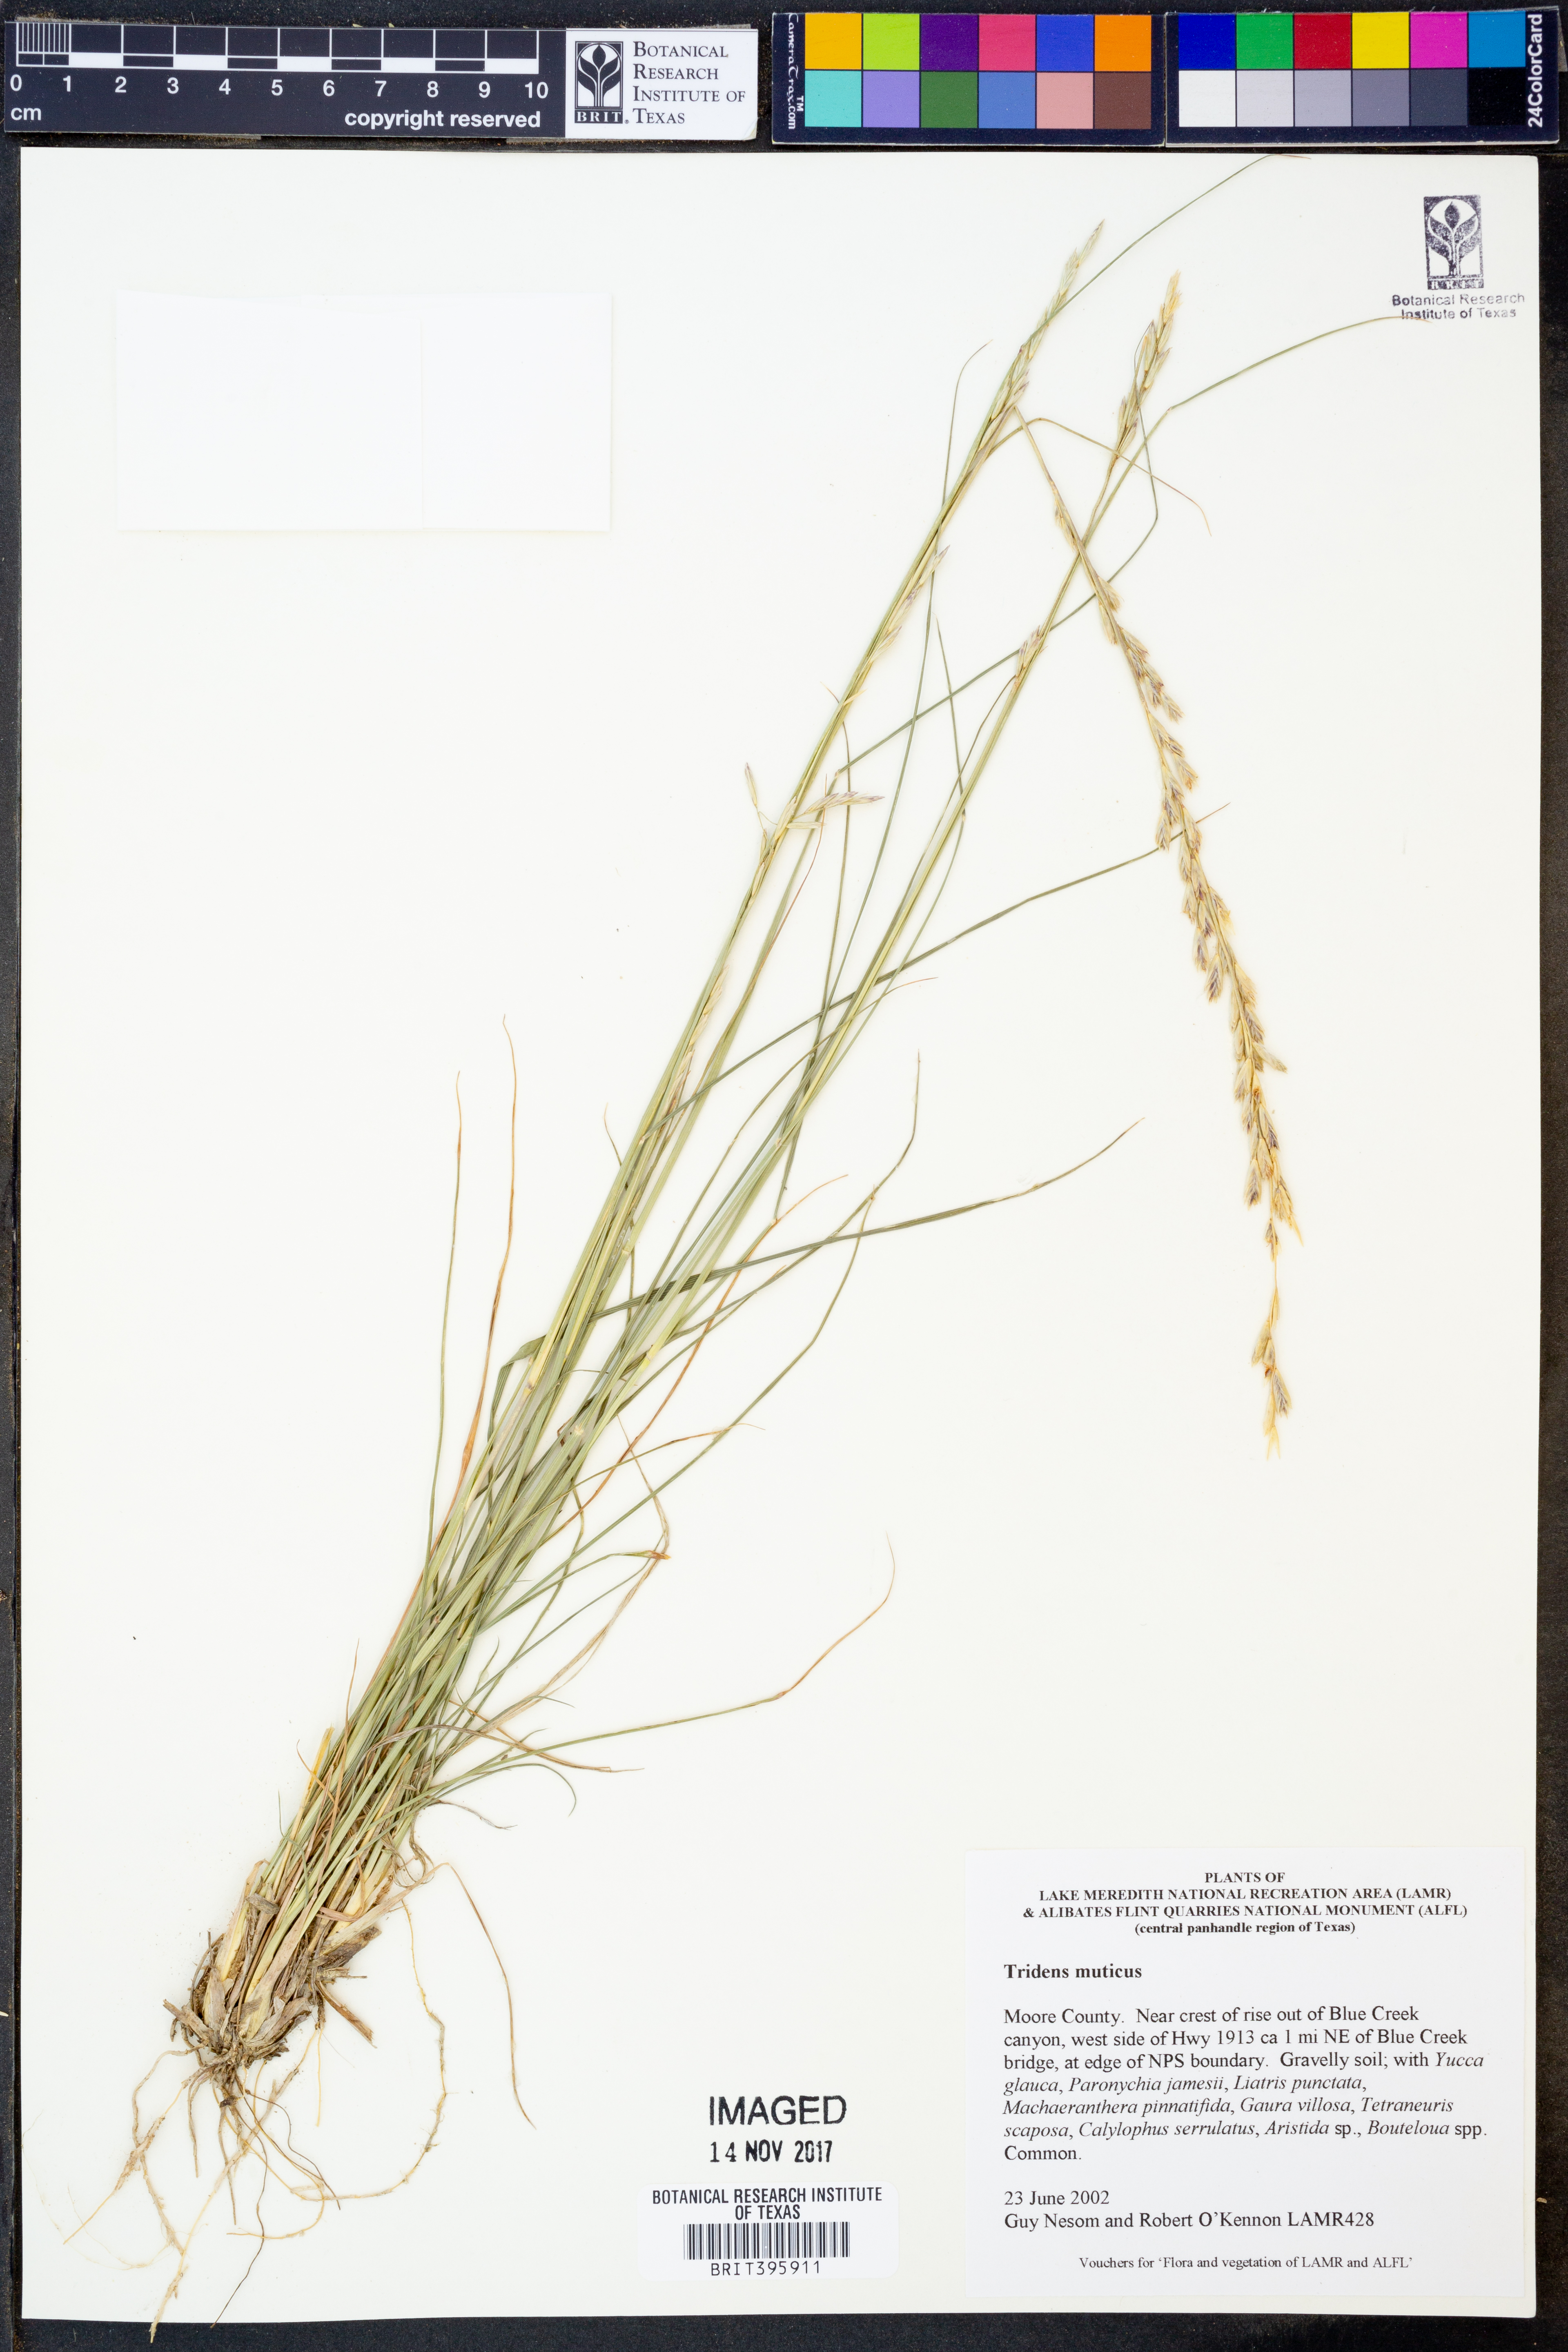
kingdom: Plantae
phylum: Tracheophyta
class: Liliopsida
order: Poales
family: Poaceae
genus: Tridentopsis
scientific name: Tridentopsis mutica
